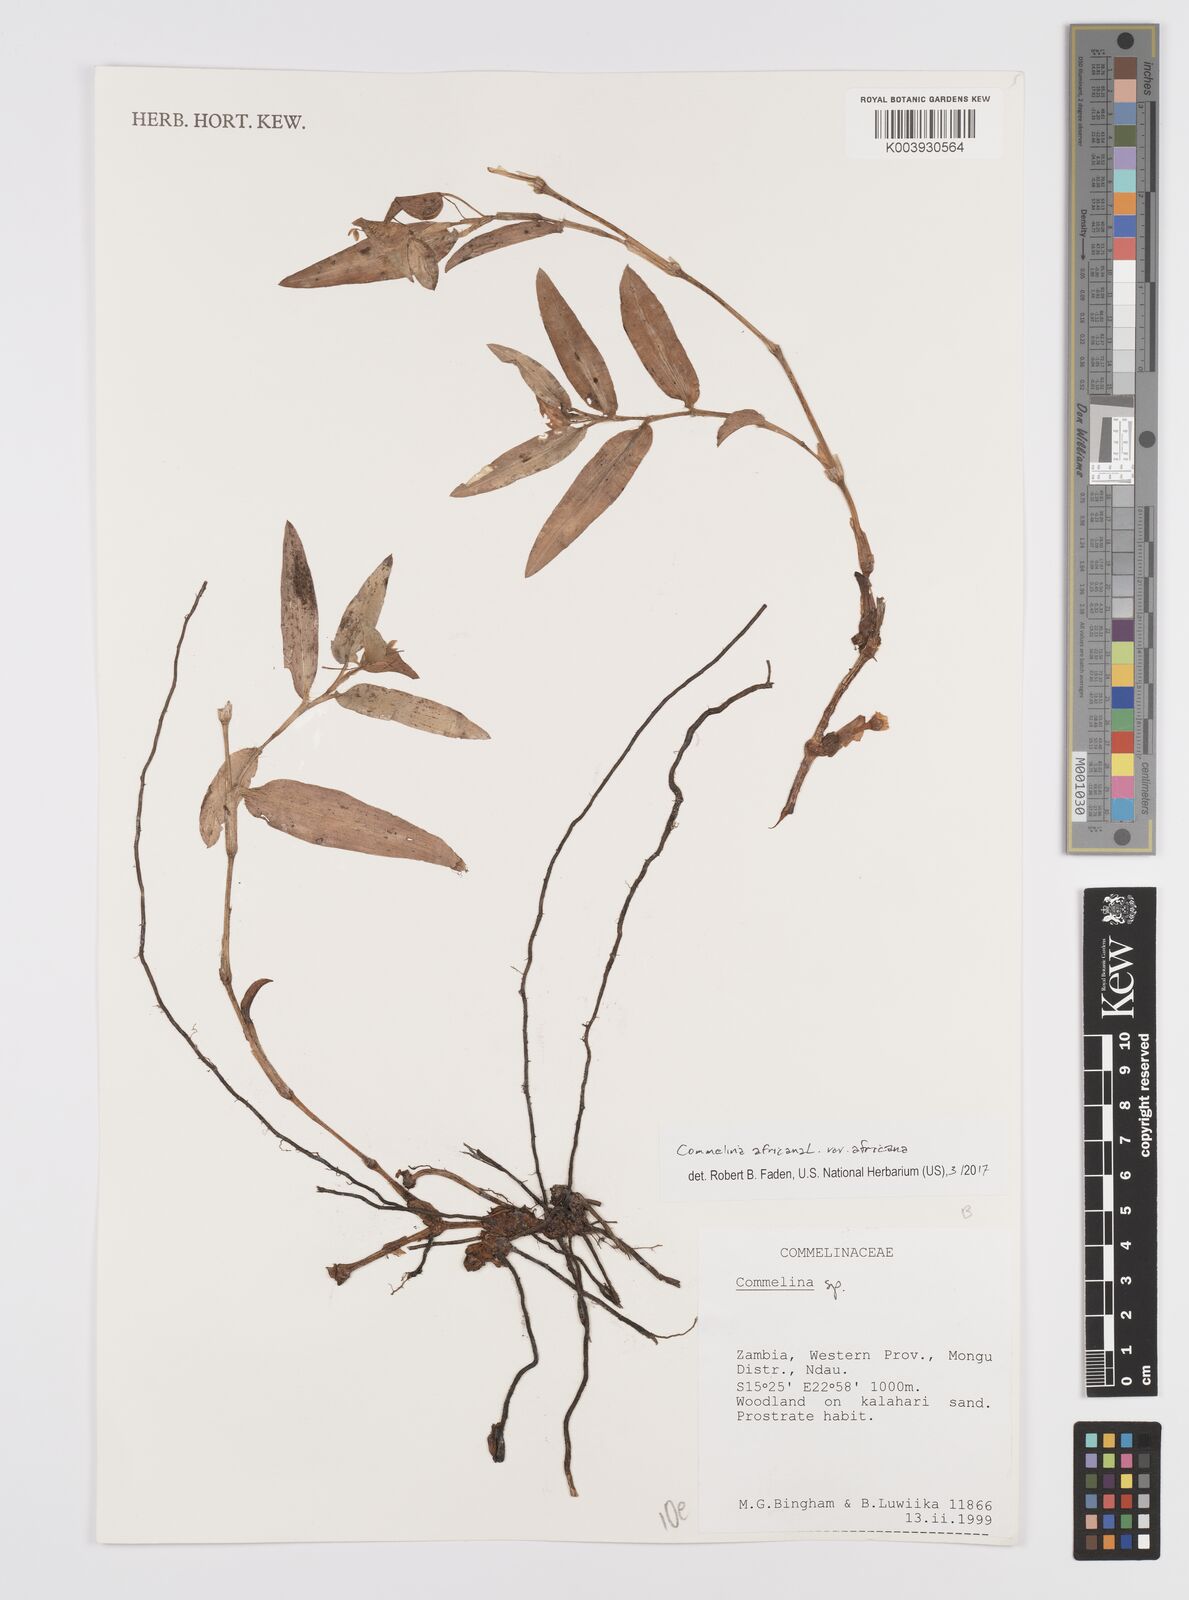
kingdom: Plantae
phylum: Tracheophyta
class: Liliopsida
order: Commelinales
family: Commelinaceae
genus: Commelina
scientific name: Commelina africana
